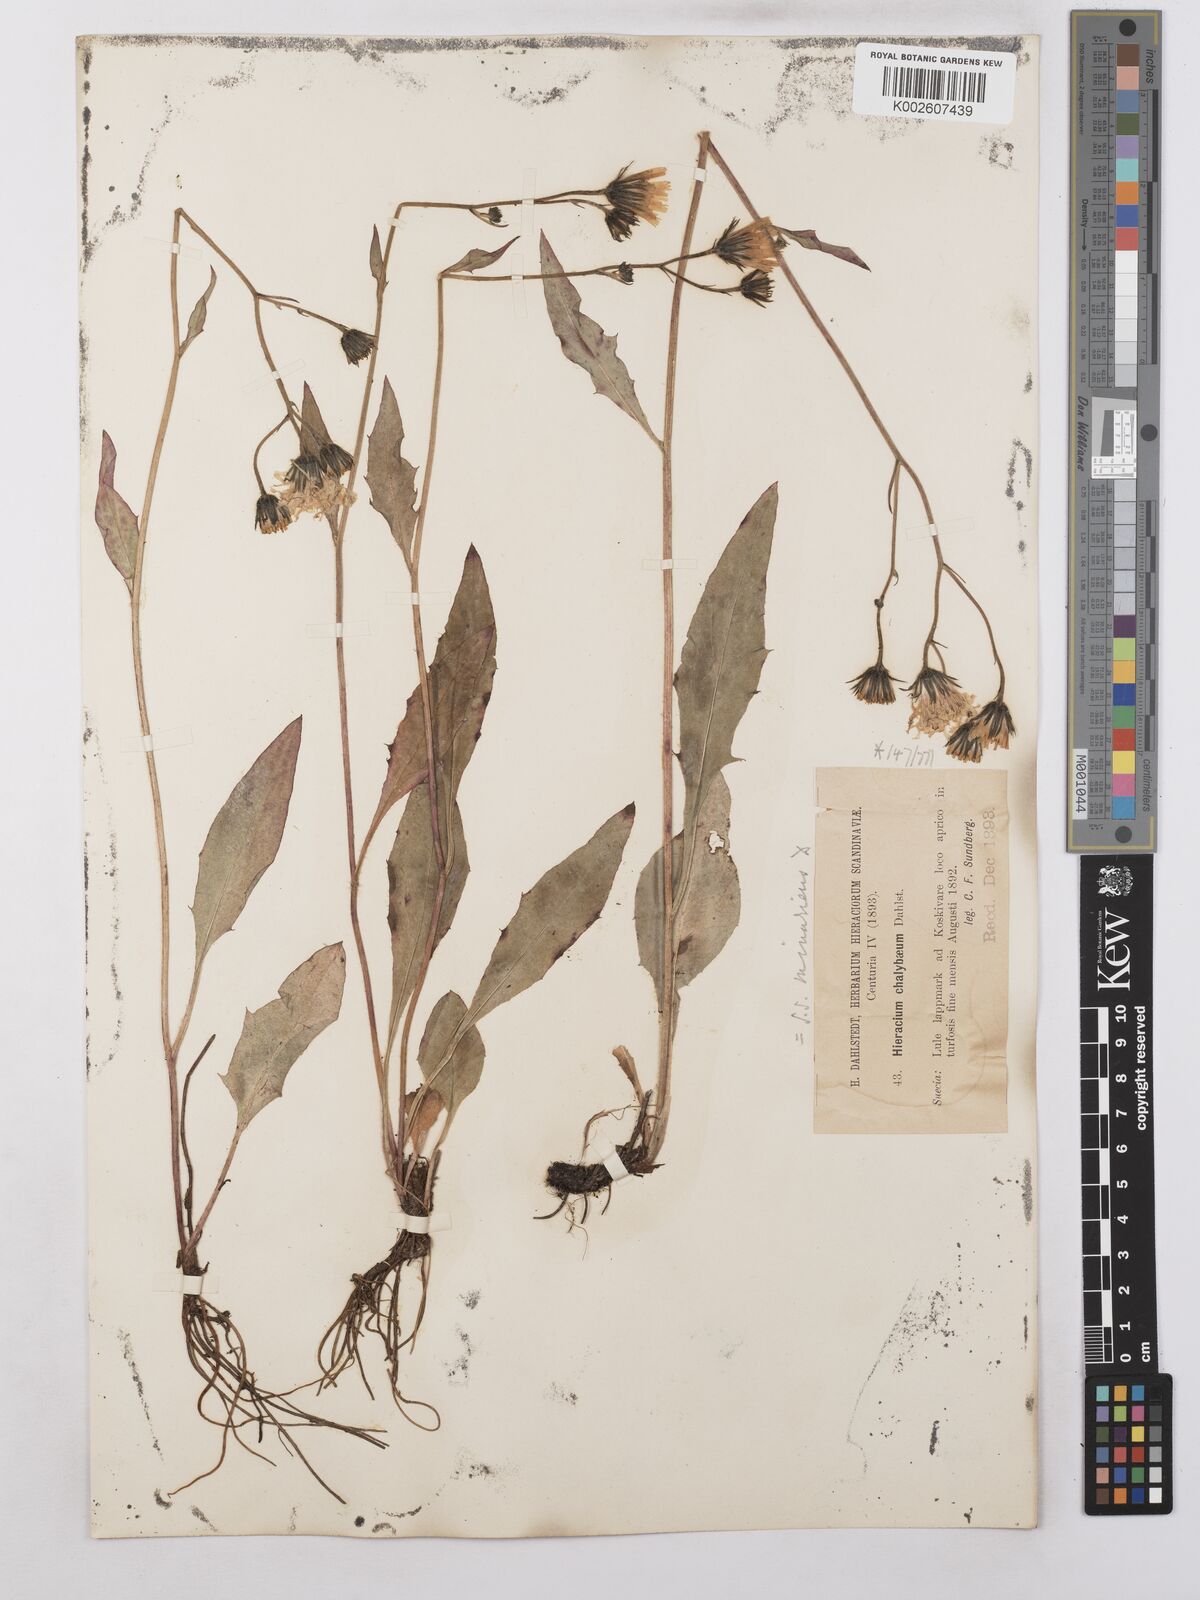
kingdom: Plantae
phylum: Tracheophyta
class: Magnoliopsida
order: Asterales
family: Asteraceae
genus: Hieracium
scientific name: Hieracium caesium
